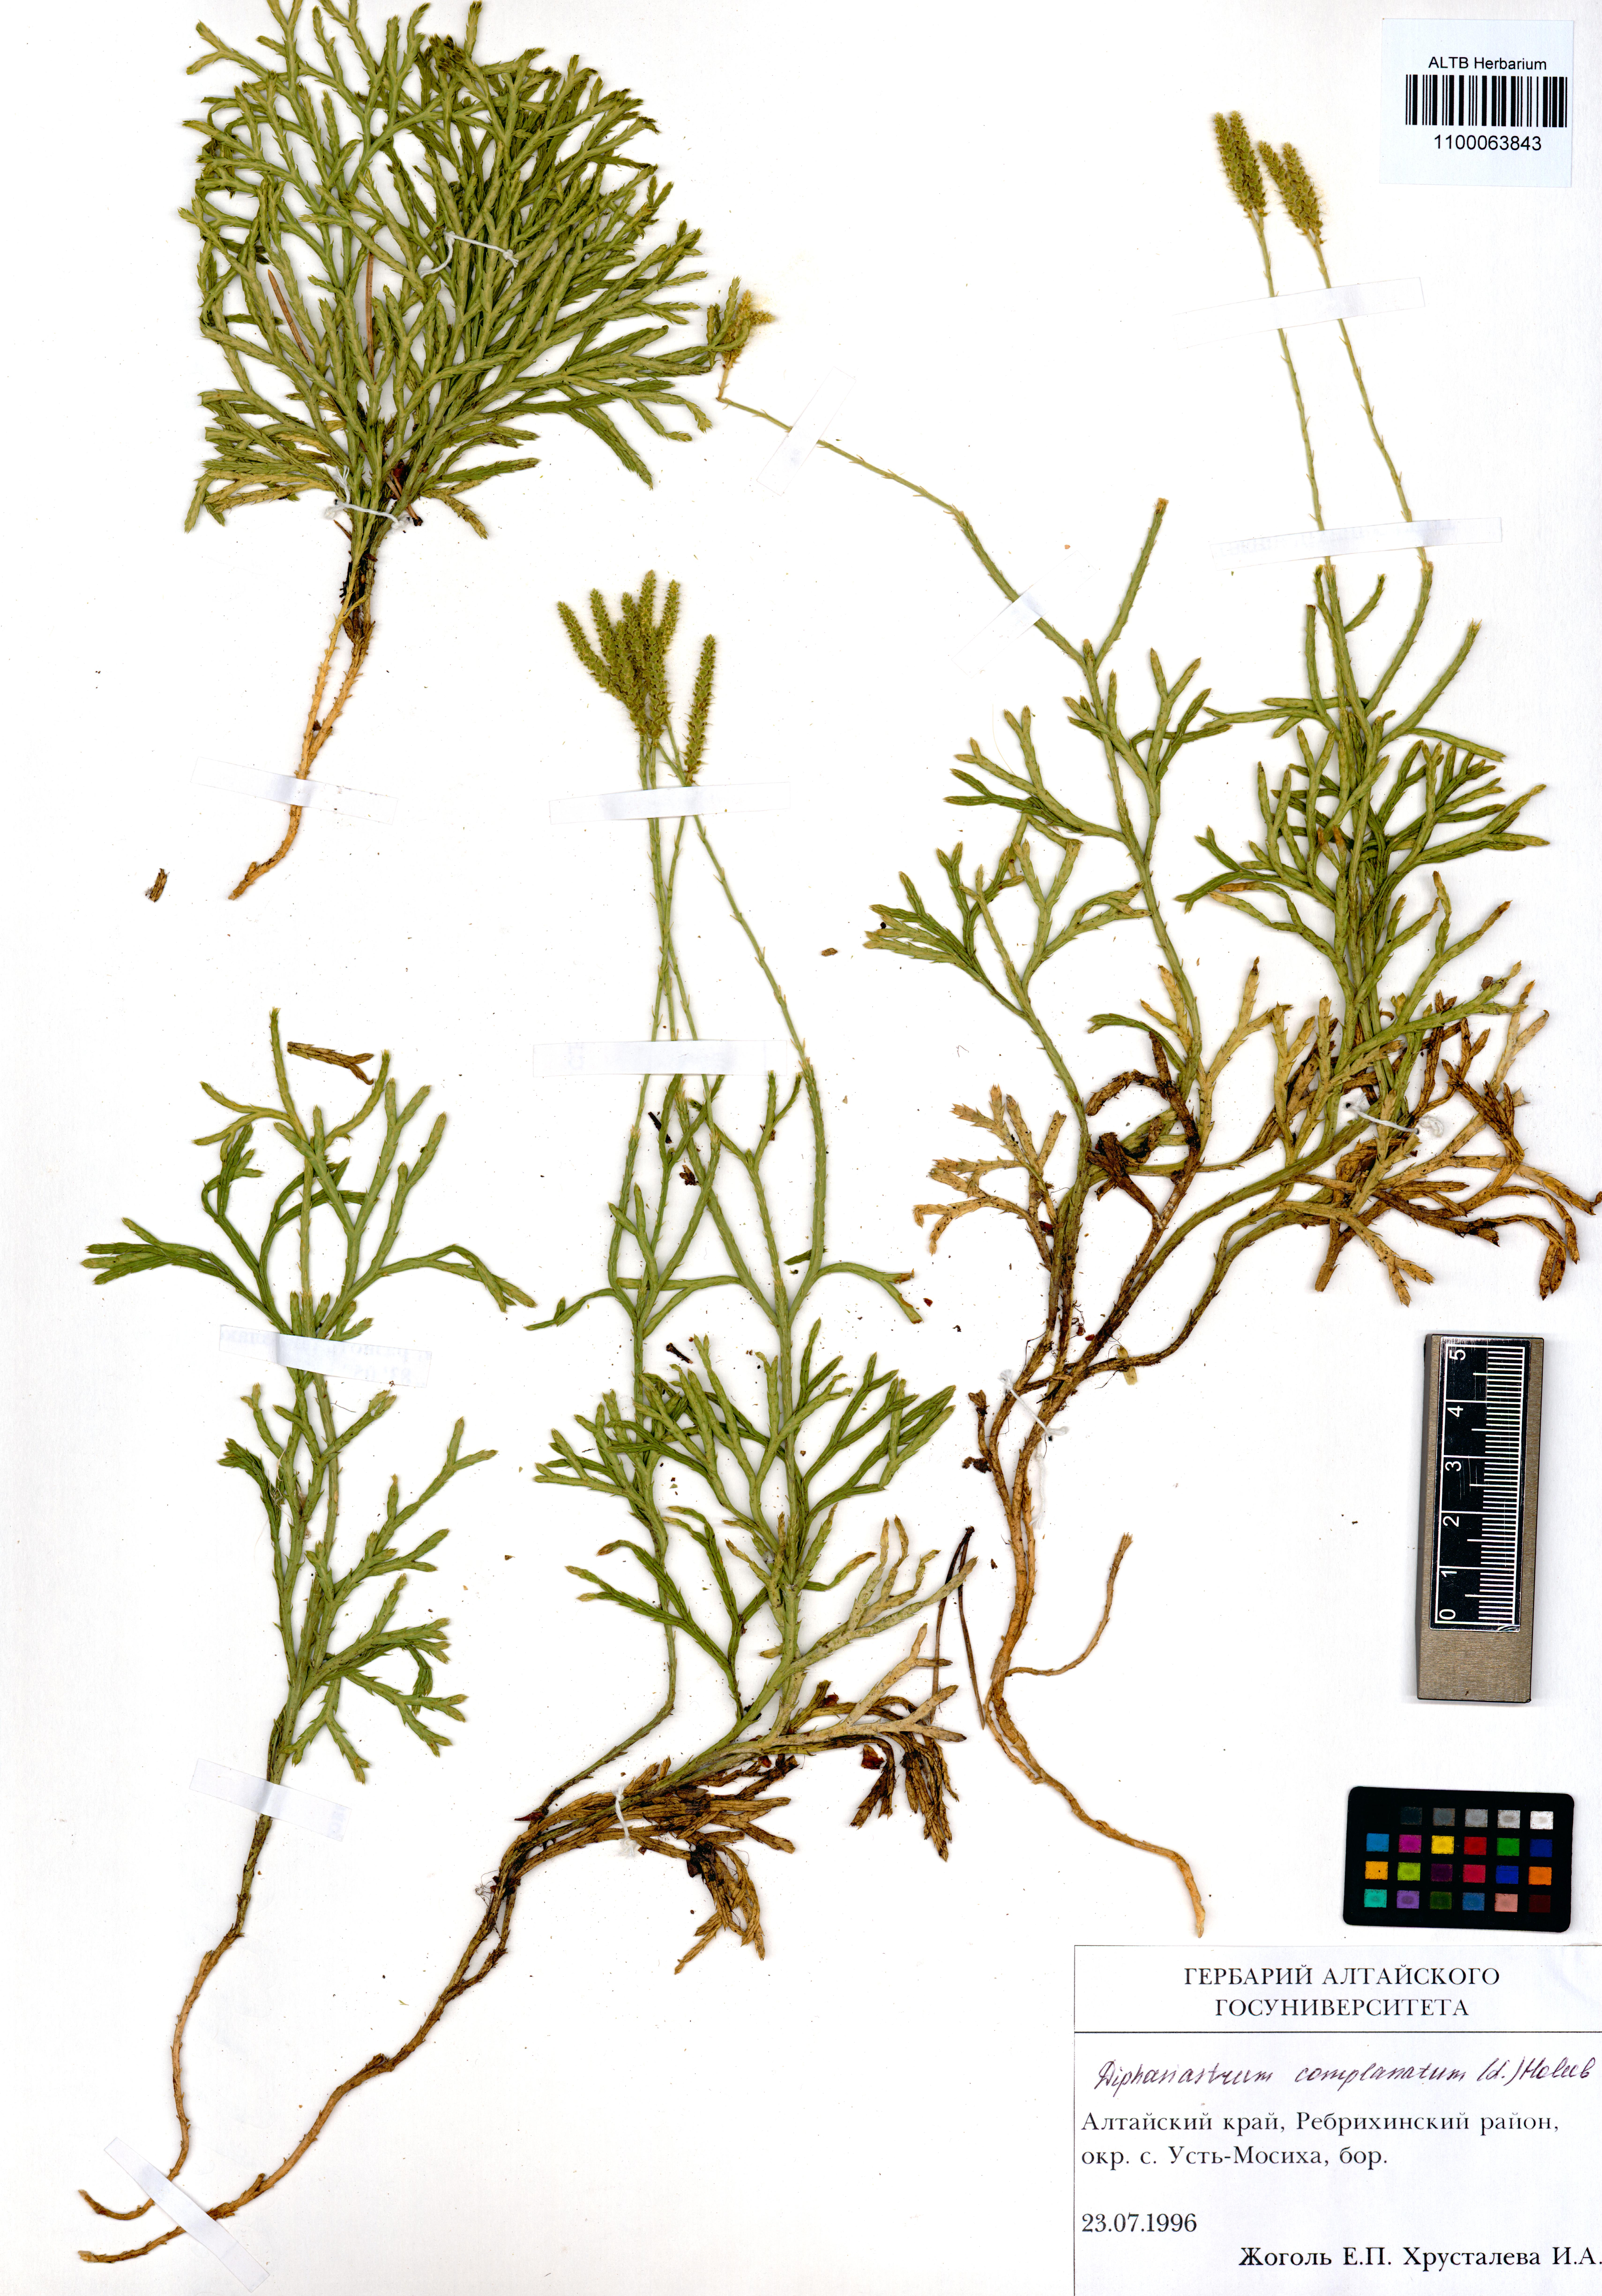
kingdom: Plantae
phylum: Tracheophyta
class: Lycopodiopsida
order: Lycopodiales
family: Lycopodiaceae
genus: Diphasiastrum
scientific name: Diphasiastrum complanatum
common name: Northern running-pine
